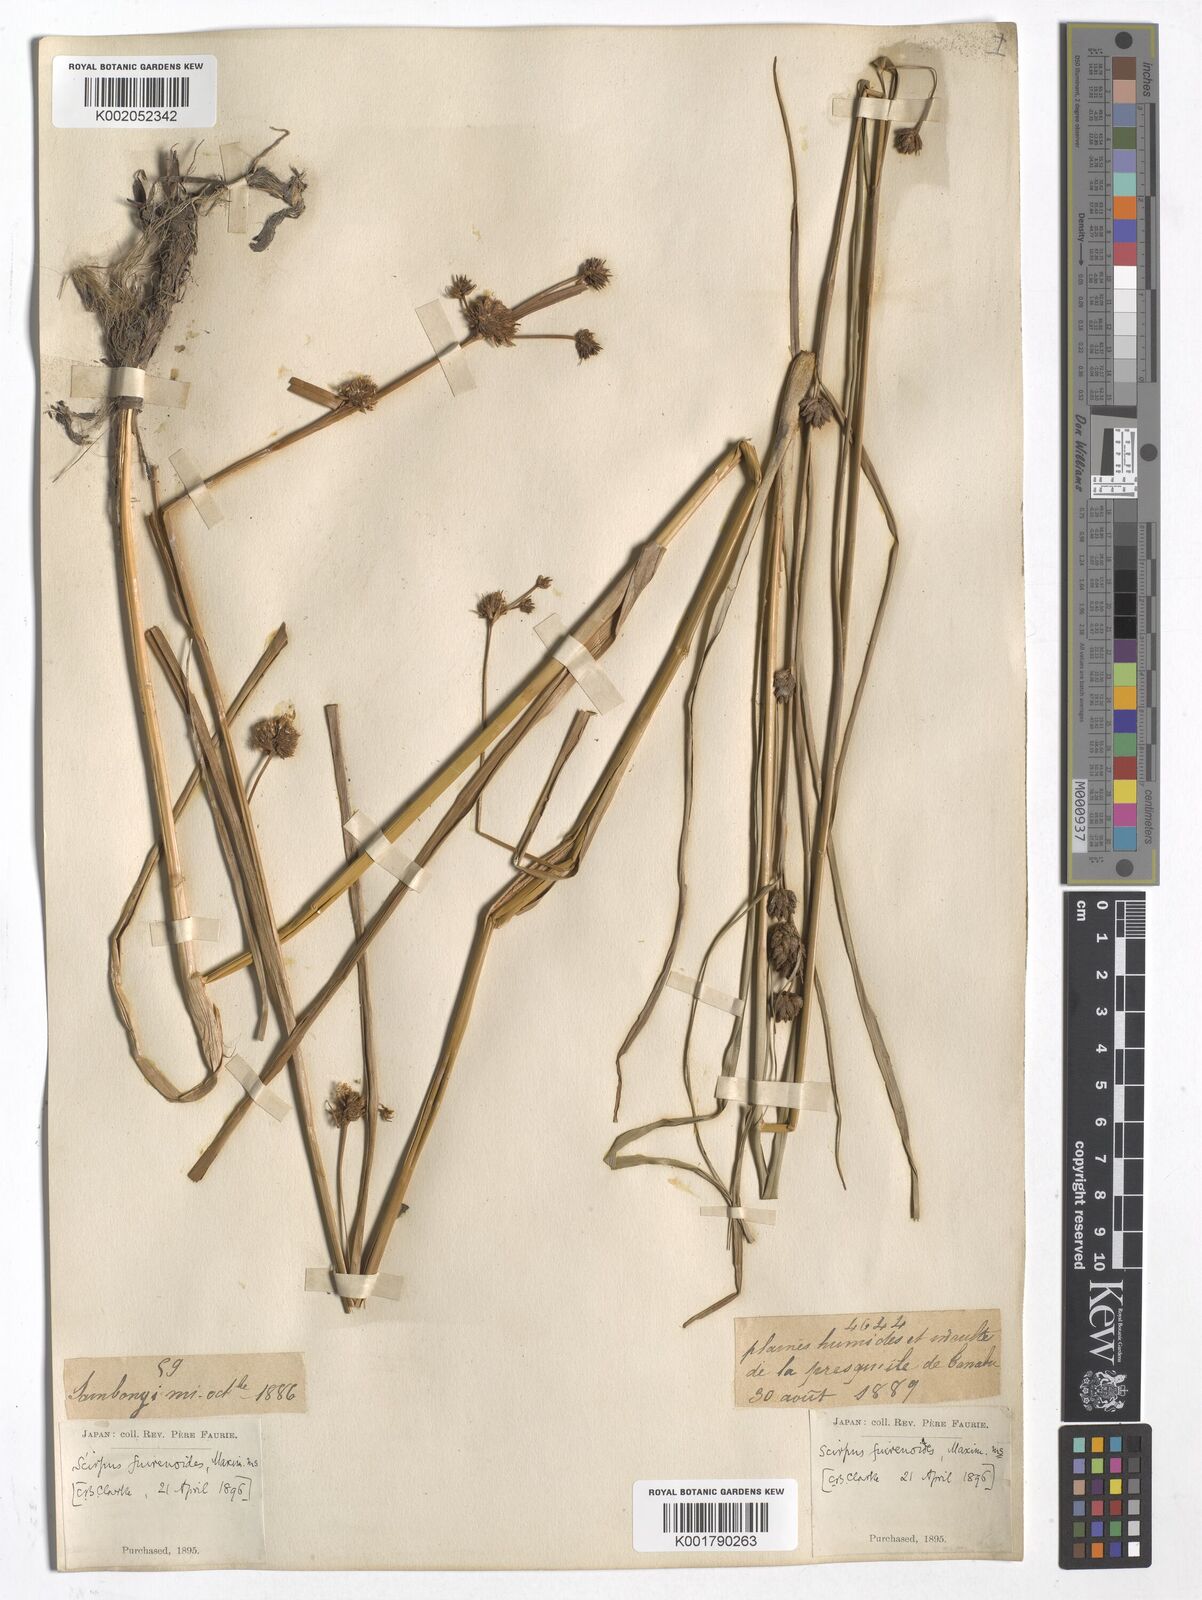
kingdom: Plantae
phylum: Tracheophyta
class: Liliopsida
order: Poales
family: Cyperaceae
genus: Scirpus
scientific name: Scirpus fuirenoides
